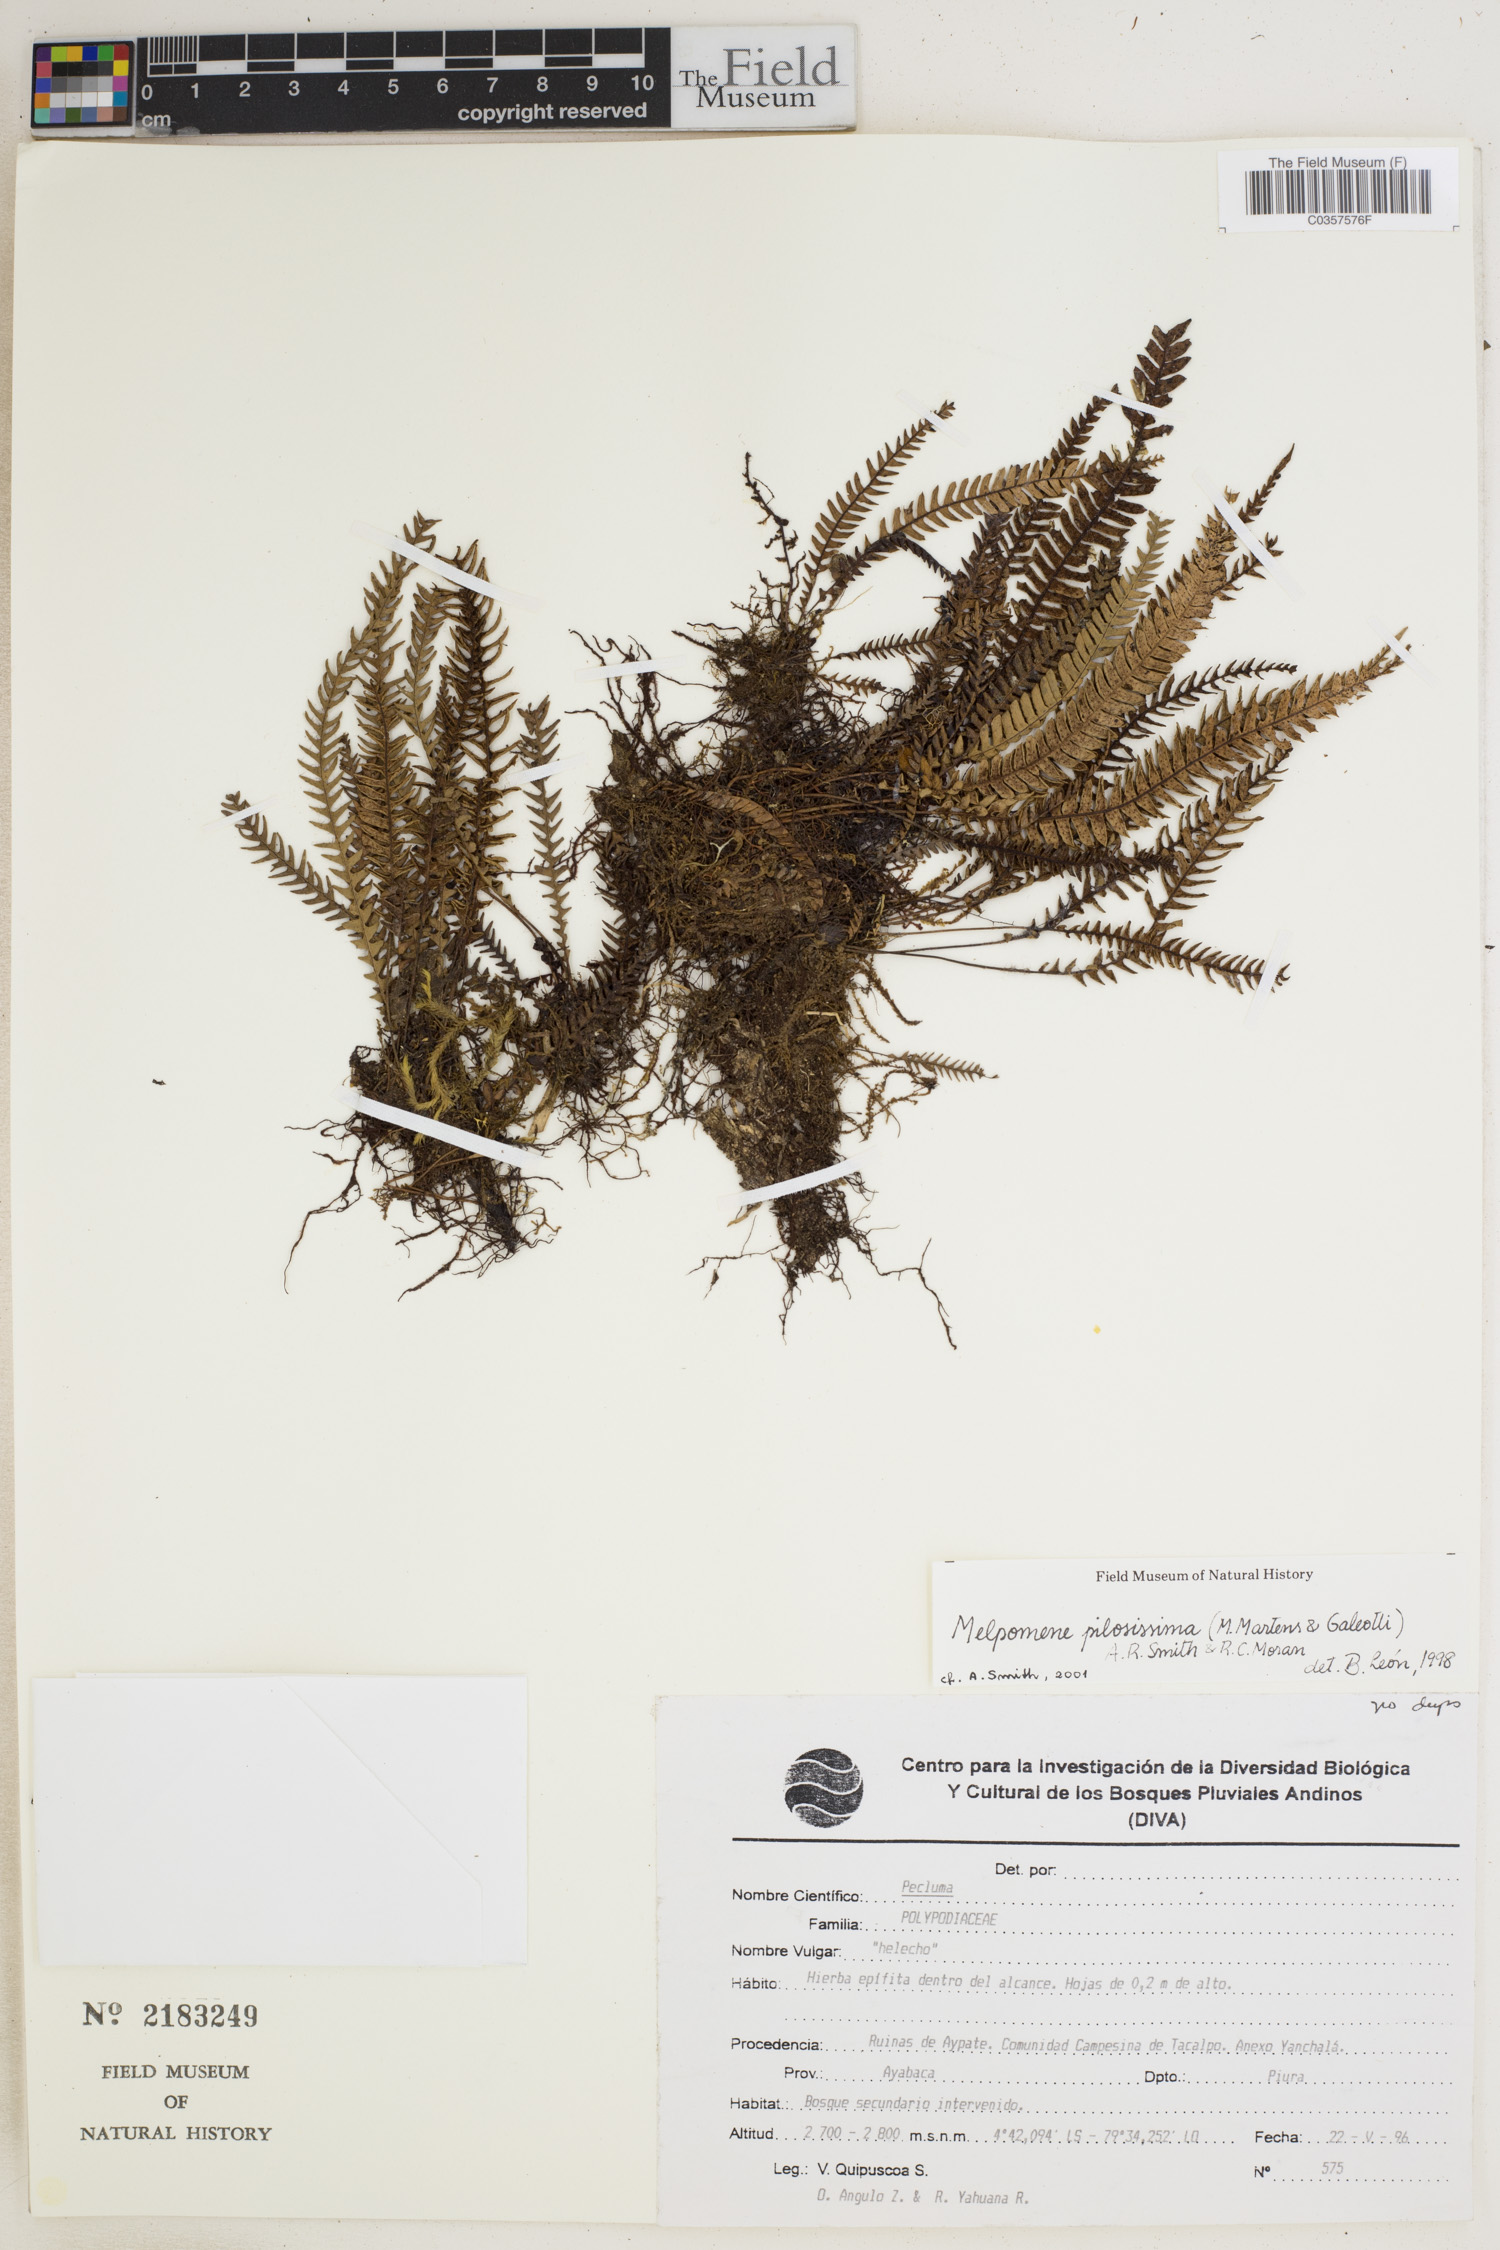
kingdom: Plantae
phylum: Tracheophyta
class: Polypodiopsida
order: Polypodiales
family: Polypodiaceae
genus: Melpomene
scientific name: Melpomene pilosissima
